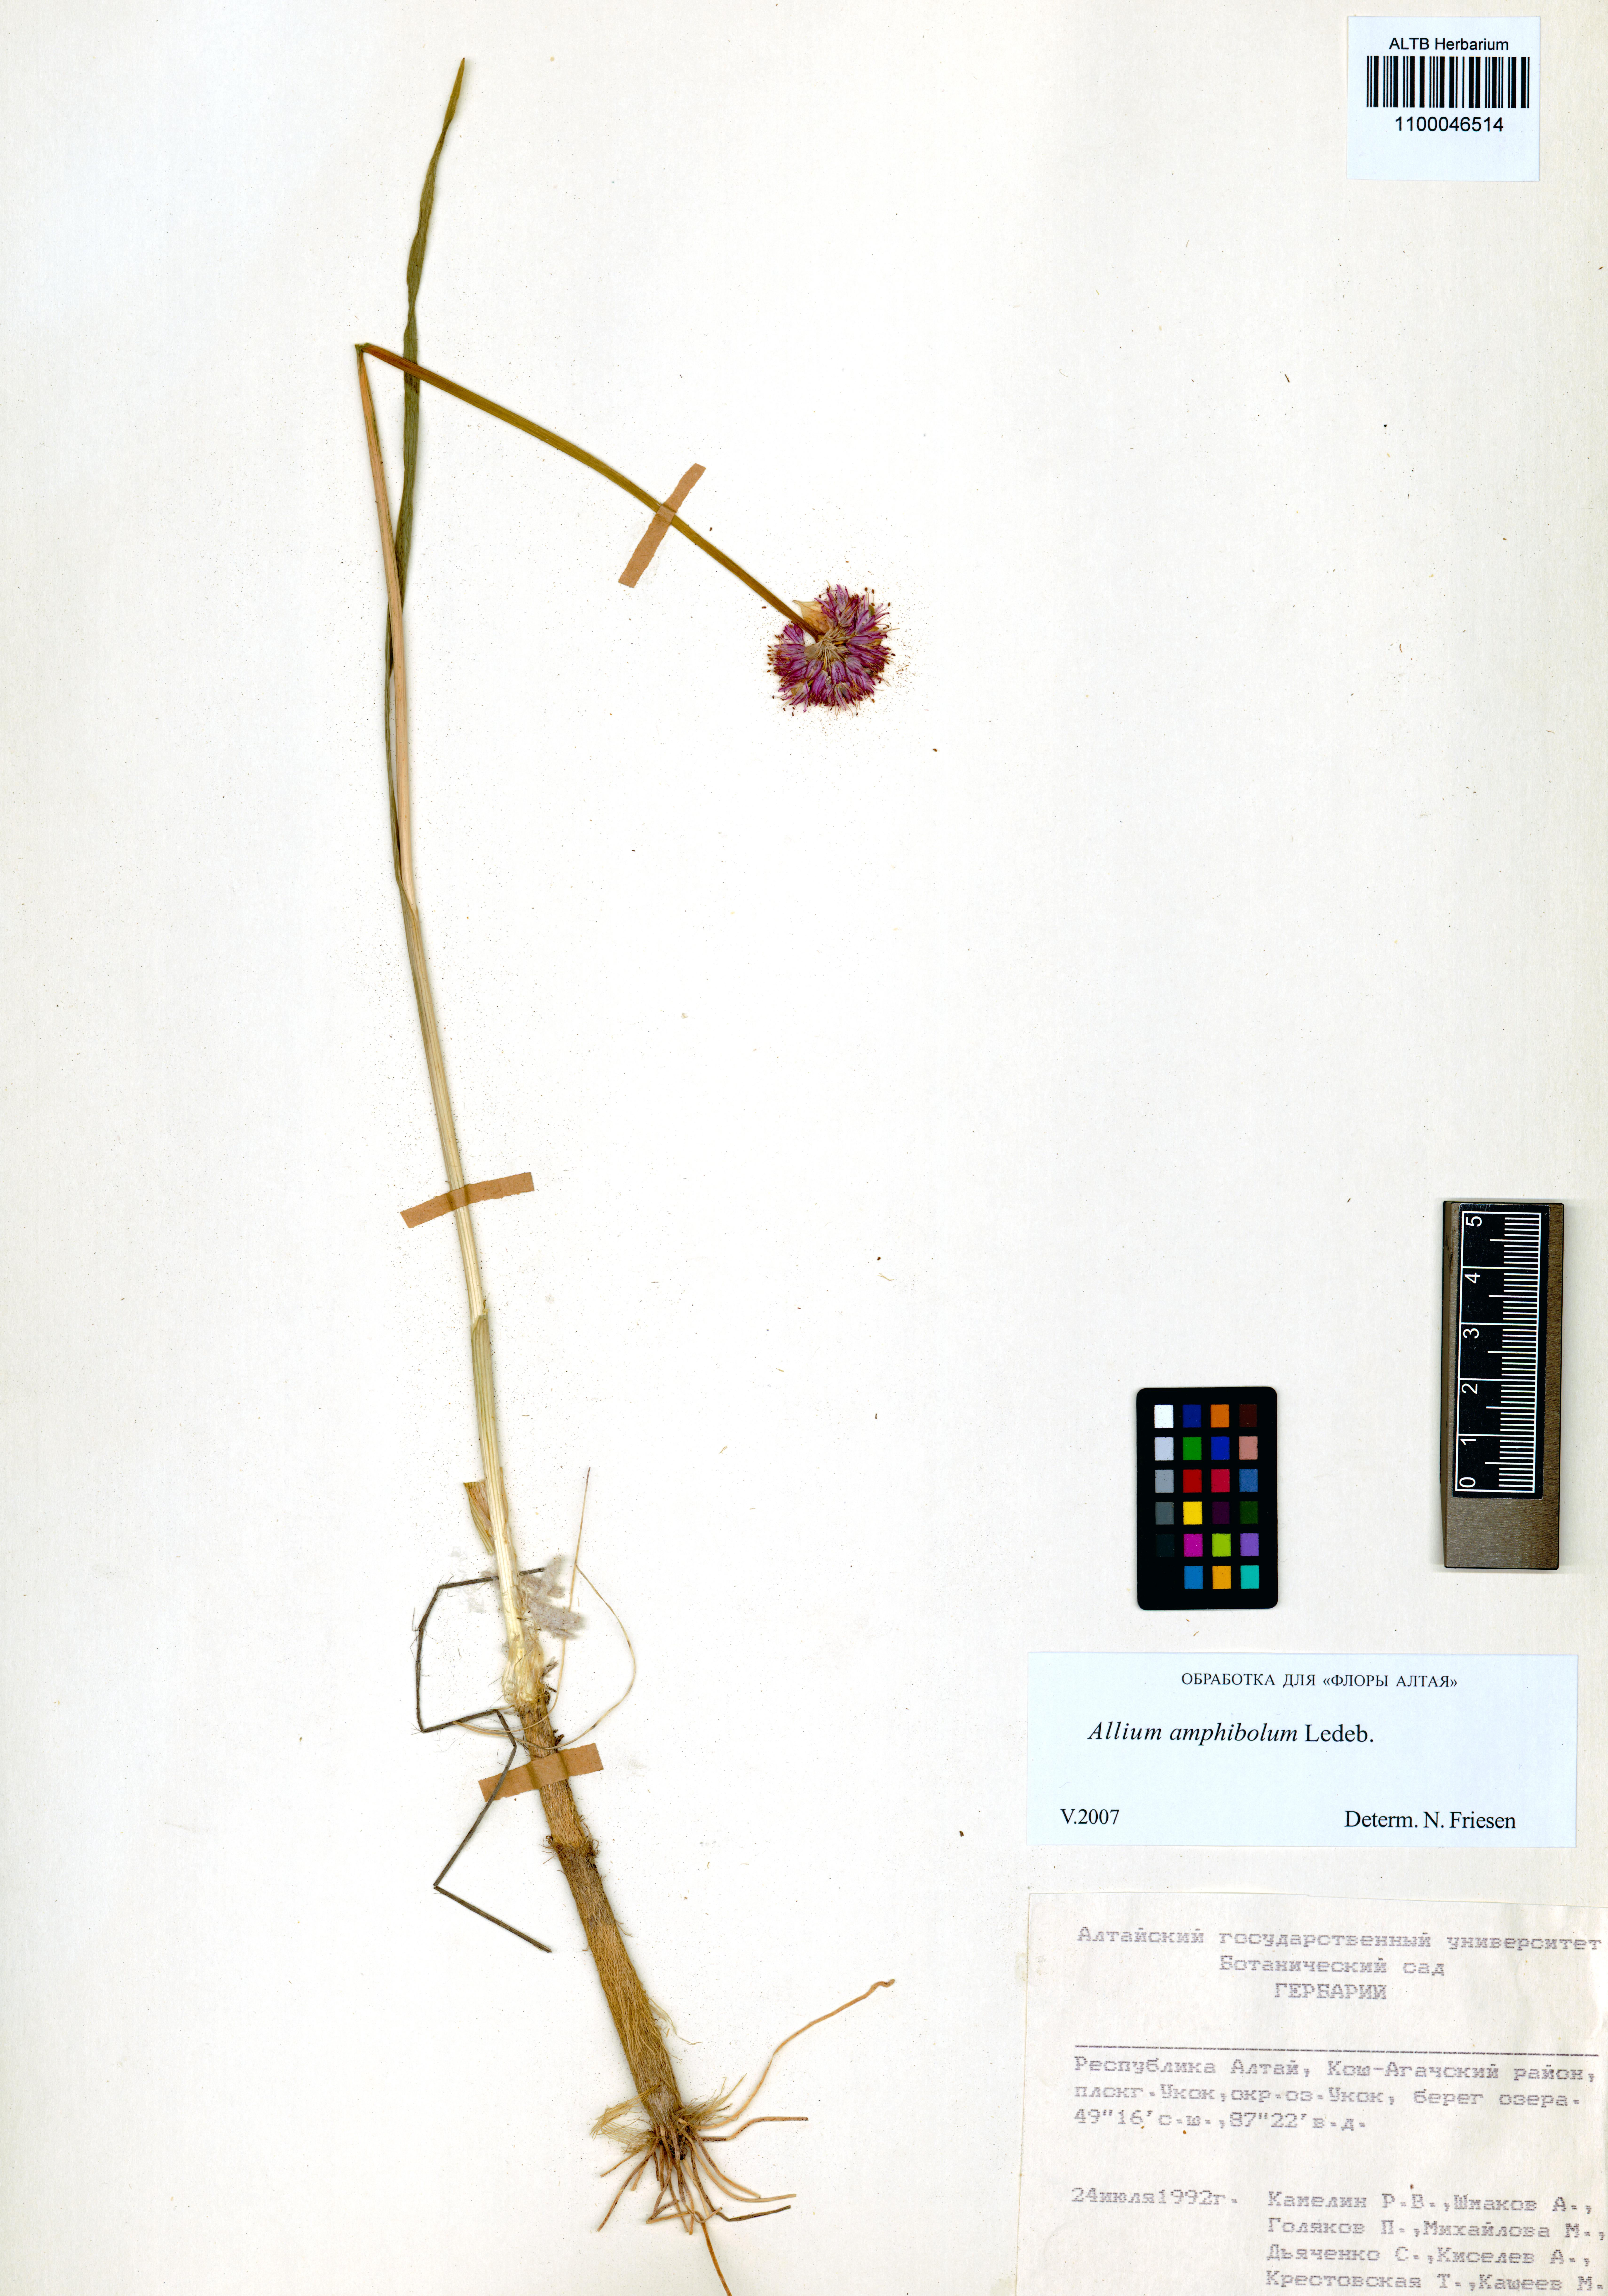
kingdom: Plantae
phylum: Tracheophyta
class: Liliopsida
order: Asparagales
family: Amaryllidaceae
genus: Allium
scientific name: Allium amphibolum
